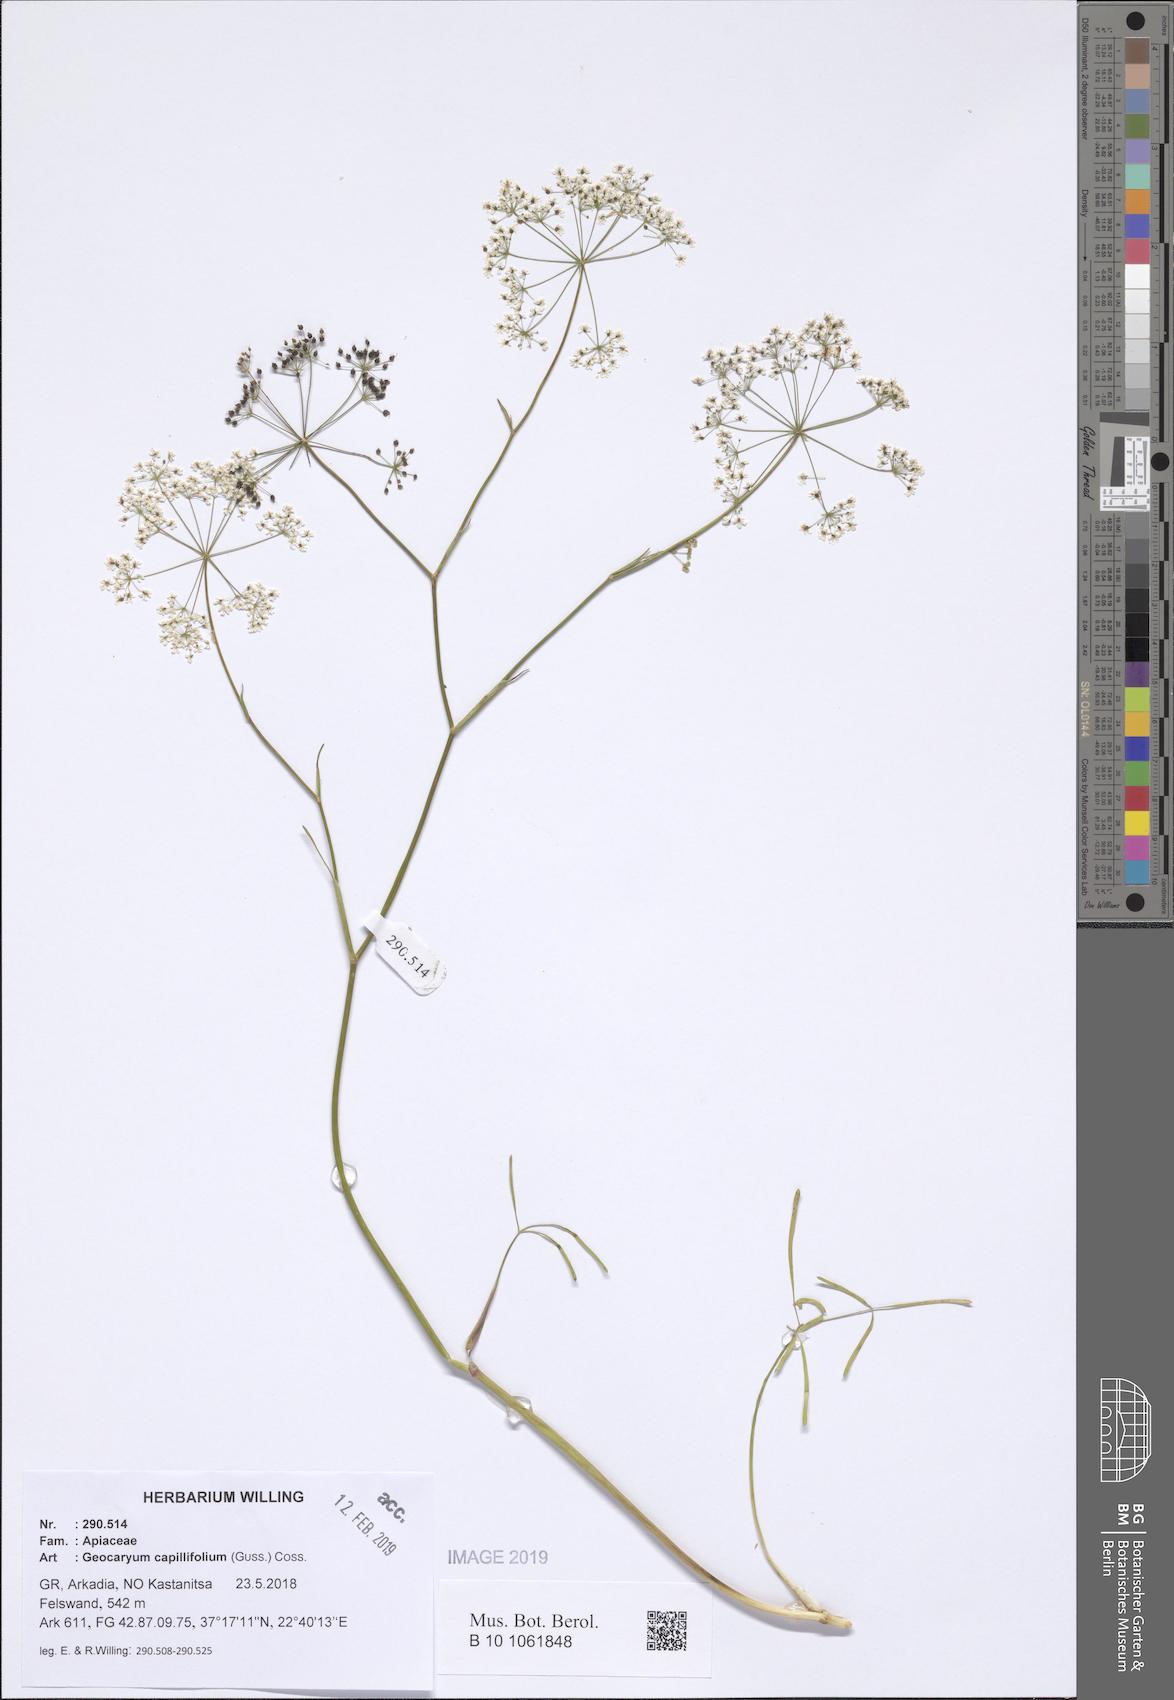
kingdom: Plantae
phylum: Tracheophyta
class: Magnoliopsida
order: Apiales
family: Apiaceae
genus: Geocaryum
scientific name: Geocaryum capillifolium
